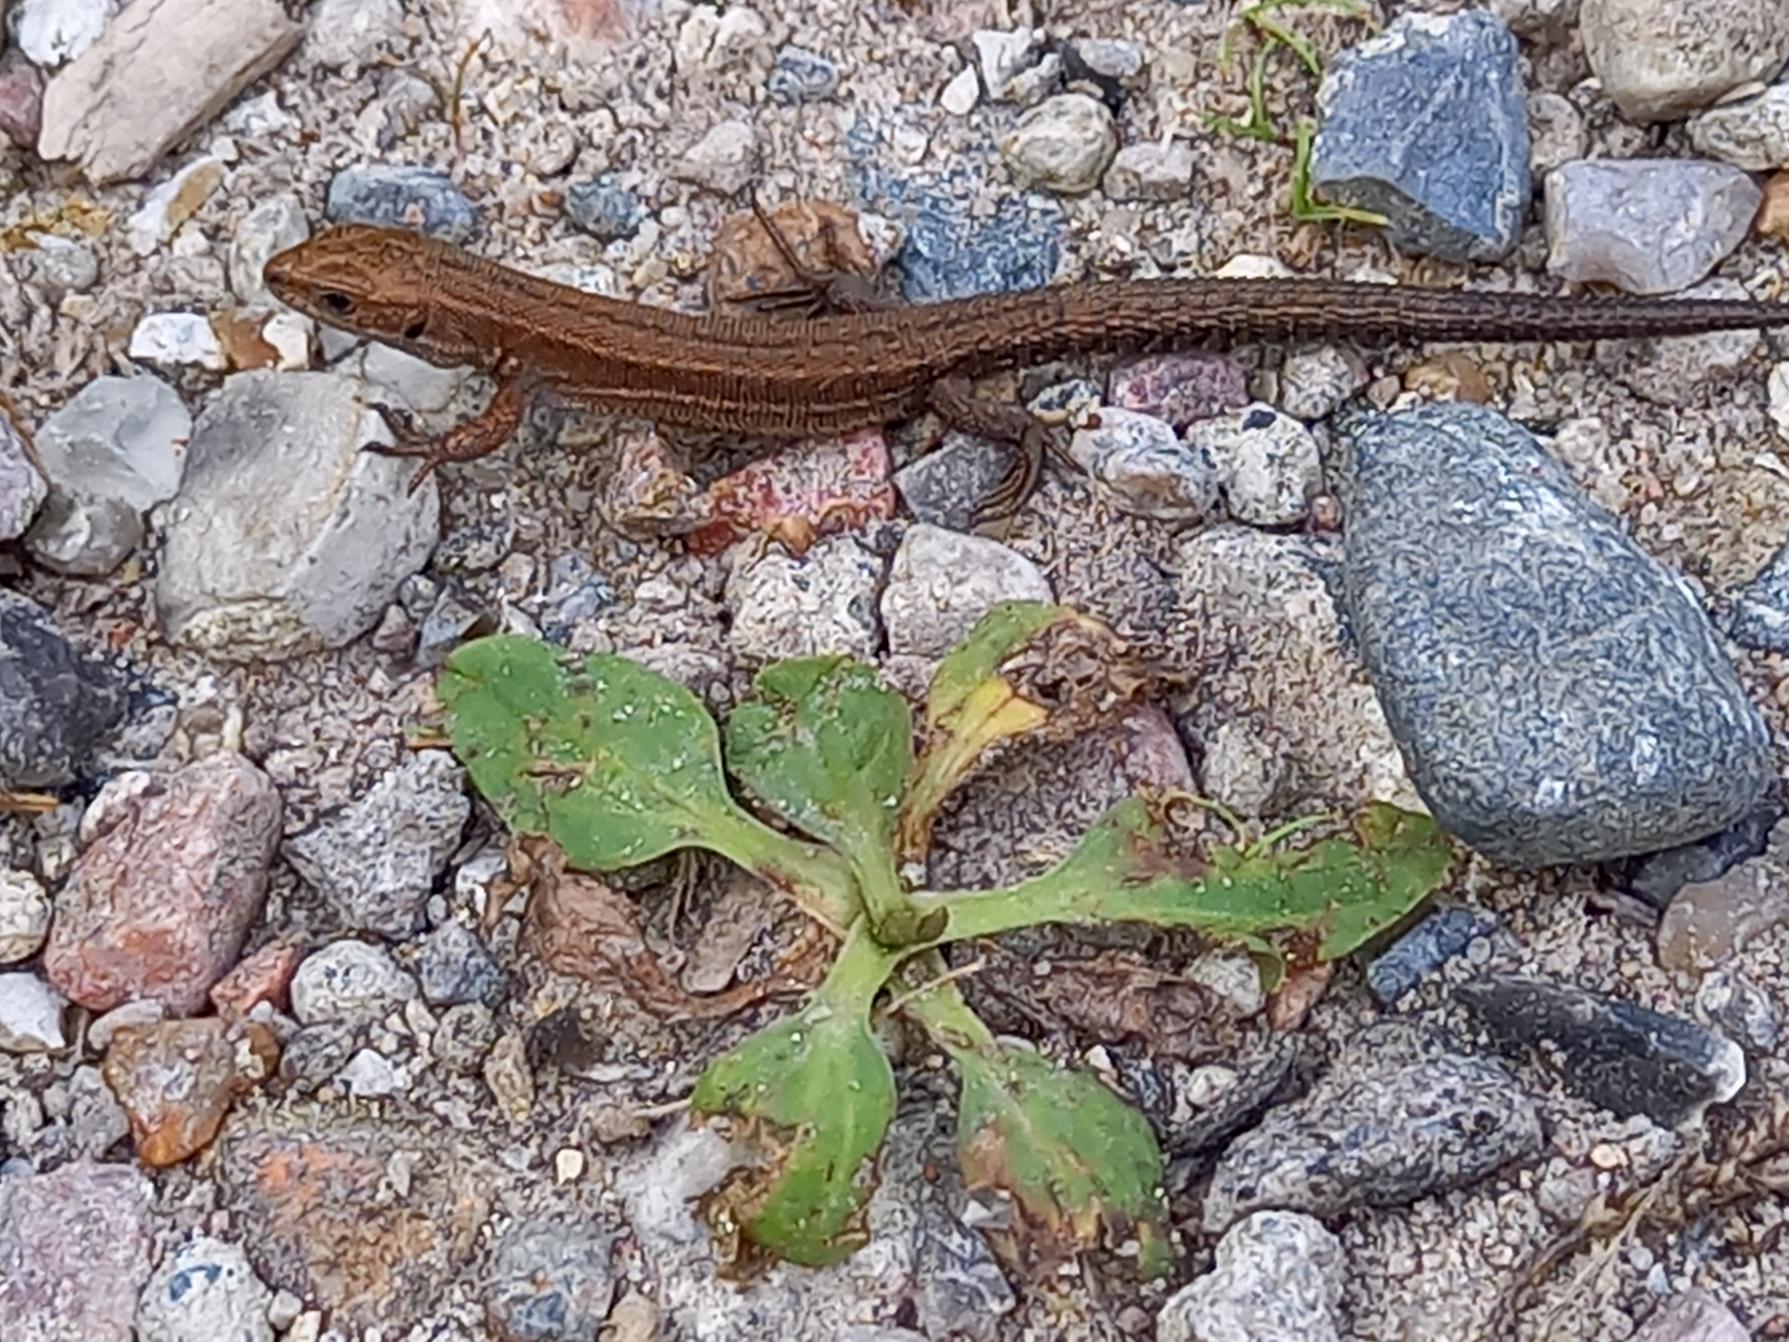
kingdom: Animalia
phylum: Chordata
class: Squamata
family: Lacertidae
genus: Zootoca
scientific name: Zootoca vivipara
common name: Skovfirben
